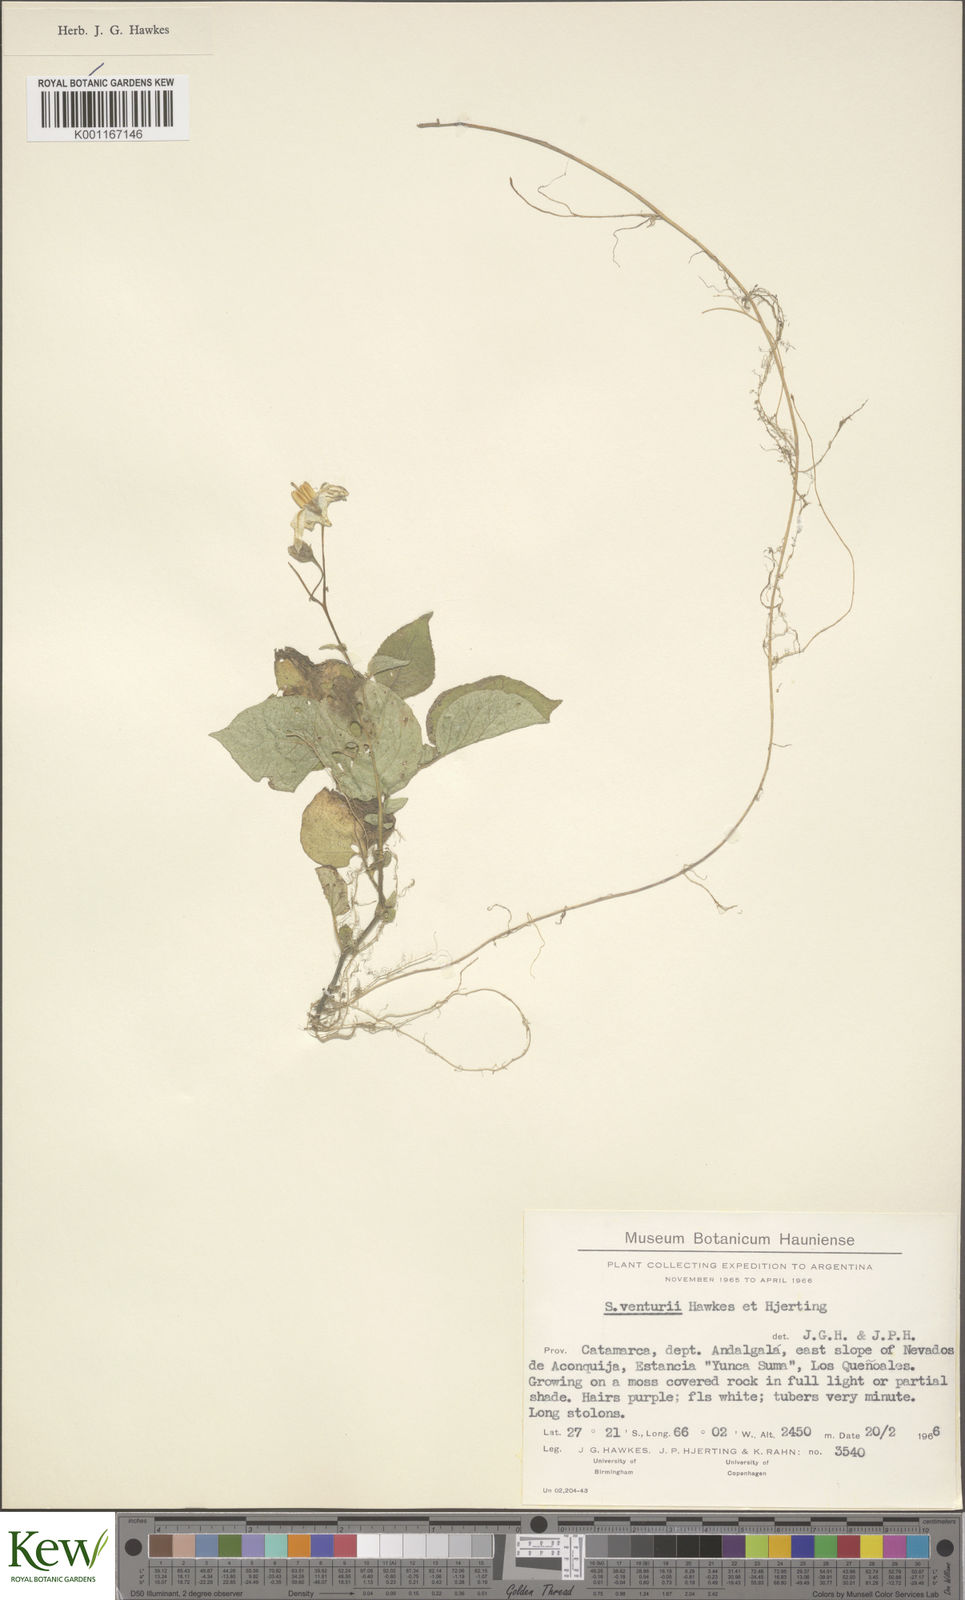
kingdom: Plantae
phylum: Tracheophyta
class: Magnoliopsida
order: Solanales
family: Solanaceae
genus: Solanum
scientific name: Solanum venturii
